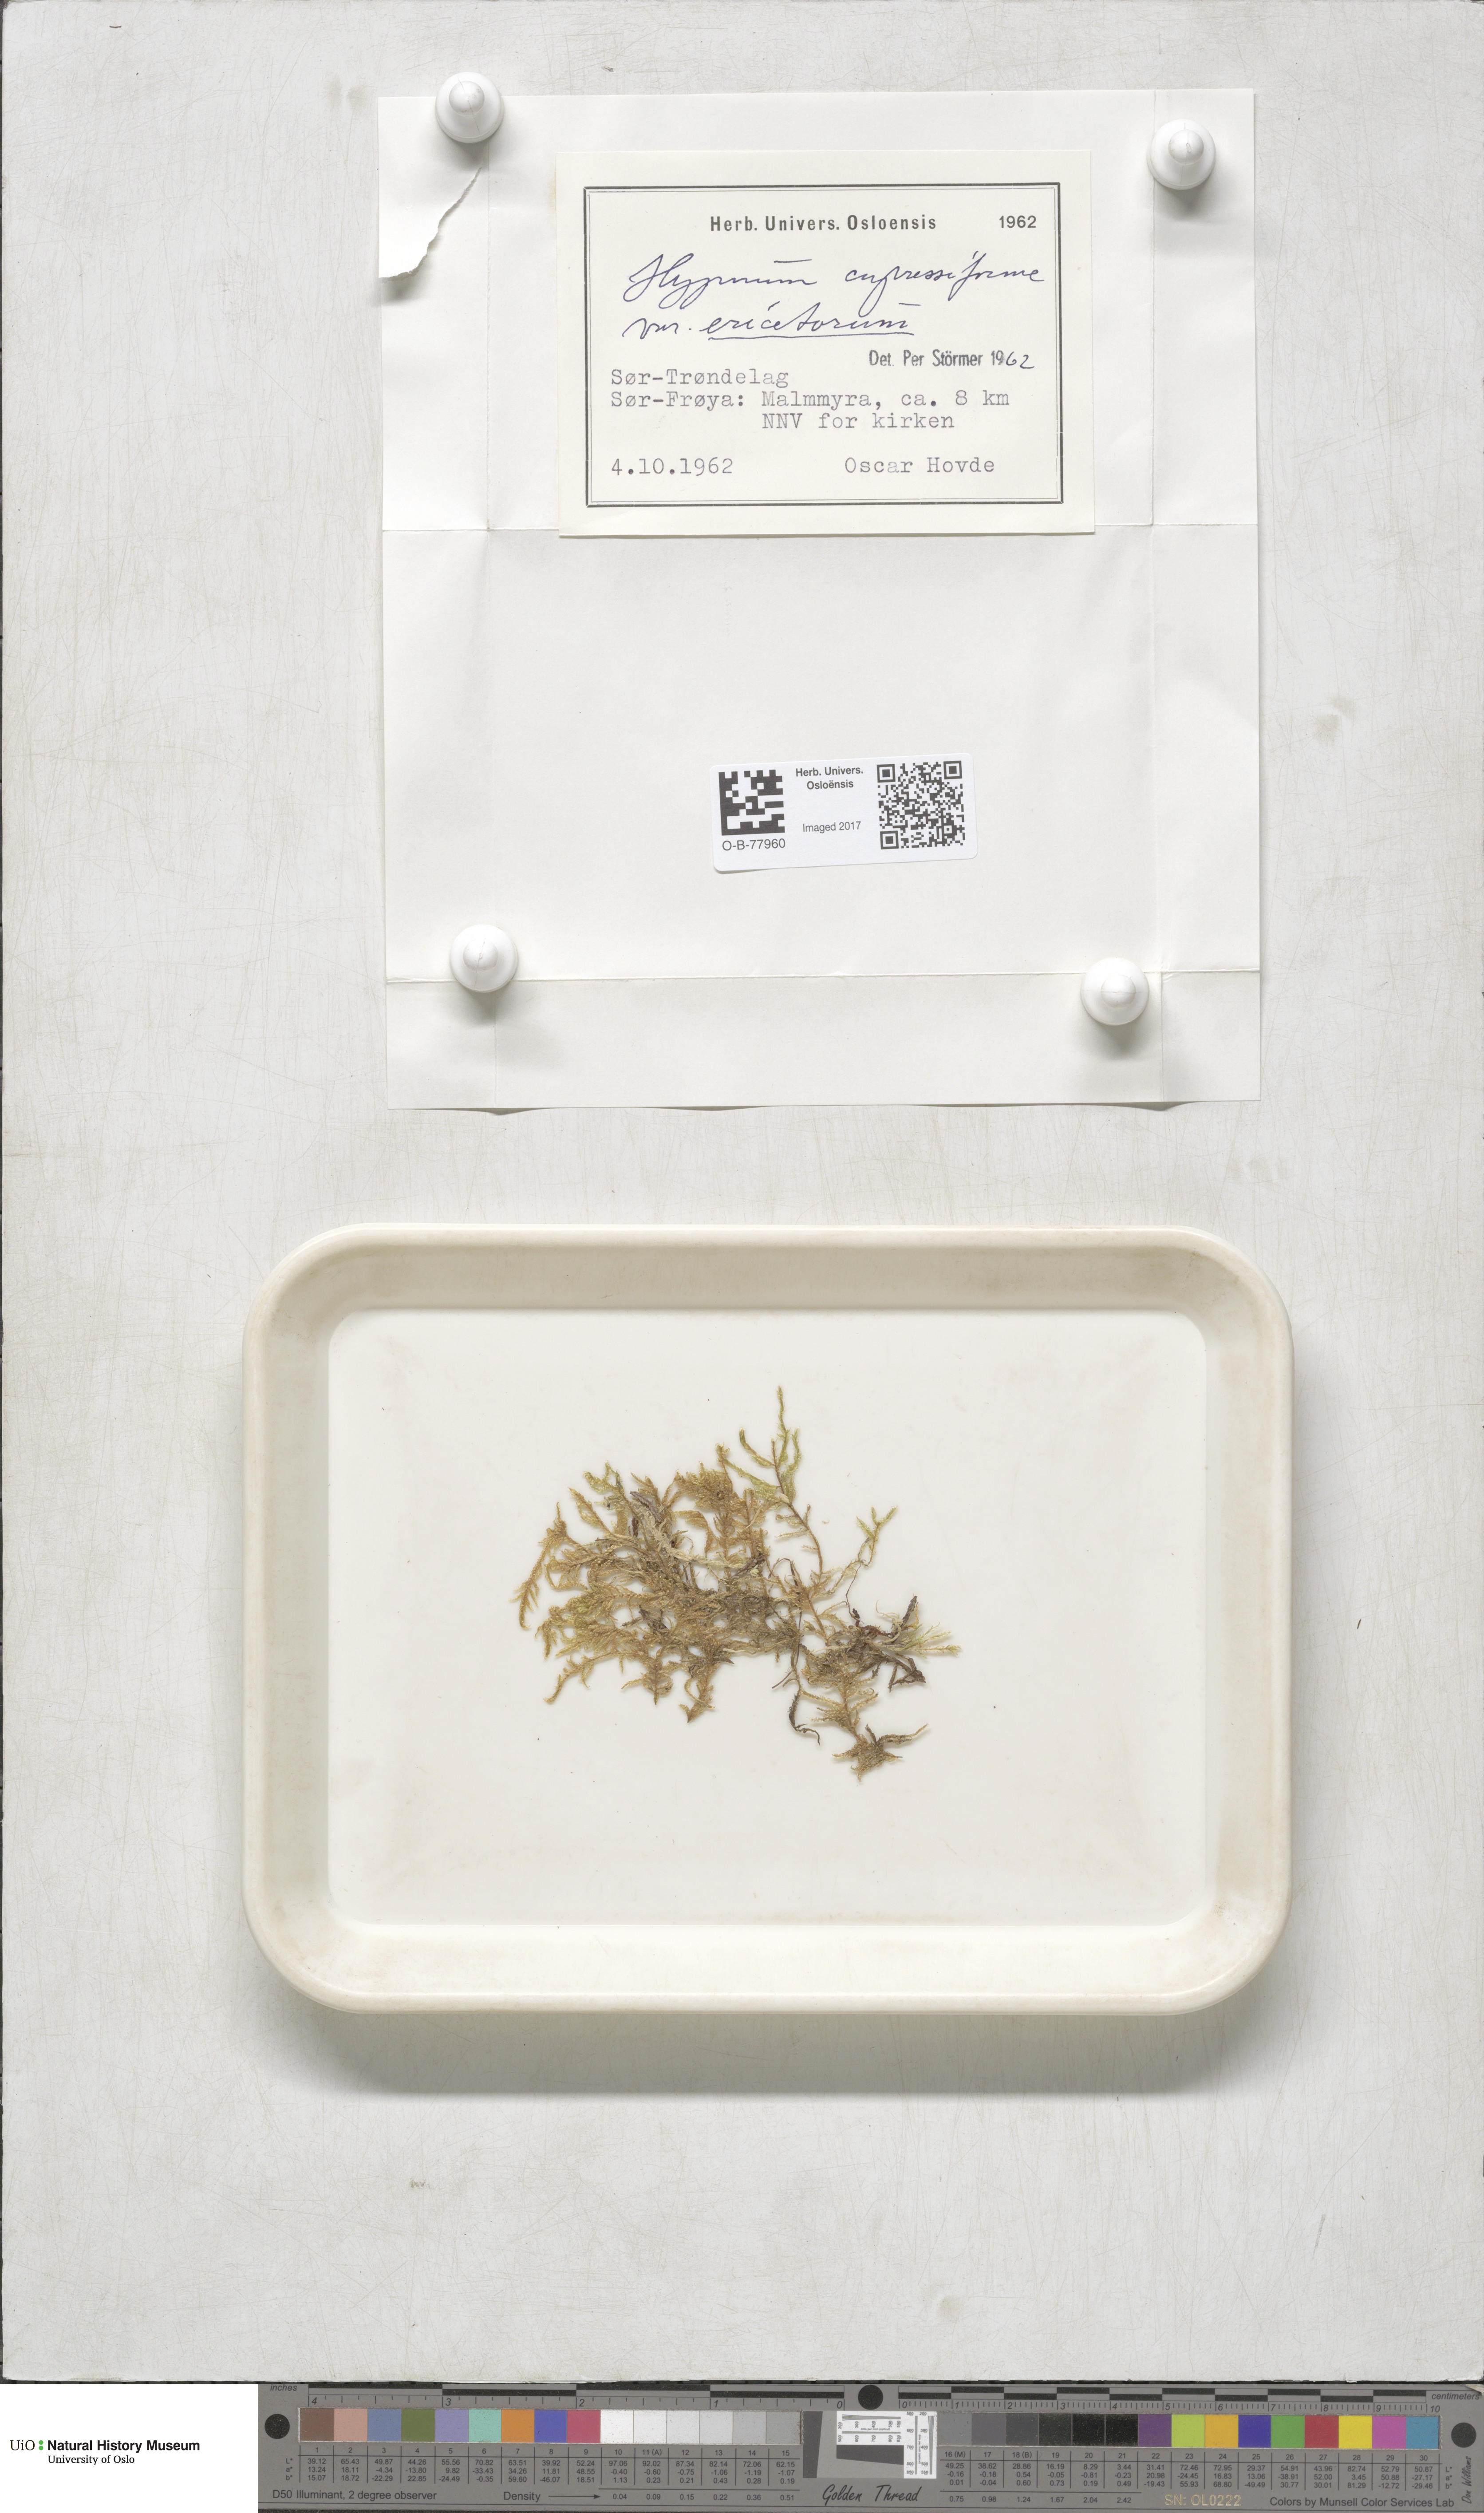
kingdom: Plantae
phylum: Bryophyta
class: Bryopsida
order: Hypnales
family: Hypnaceae
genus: Hypnum
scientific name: Hypnum jutlandicum
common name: Heath plait-moss
